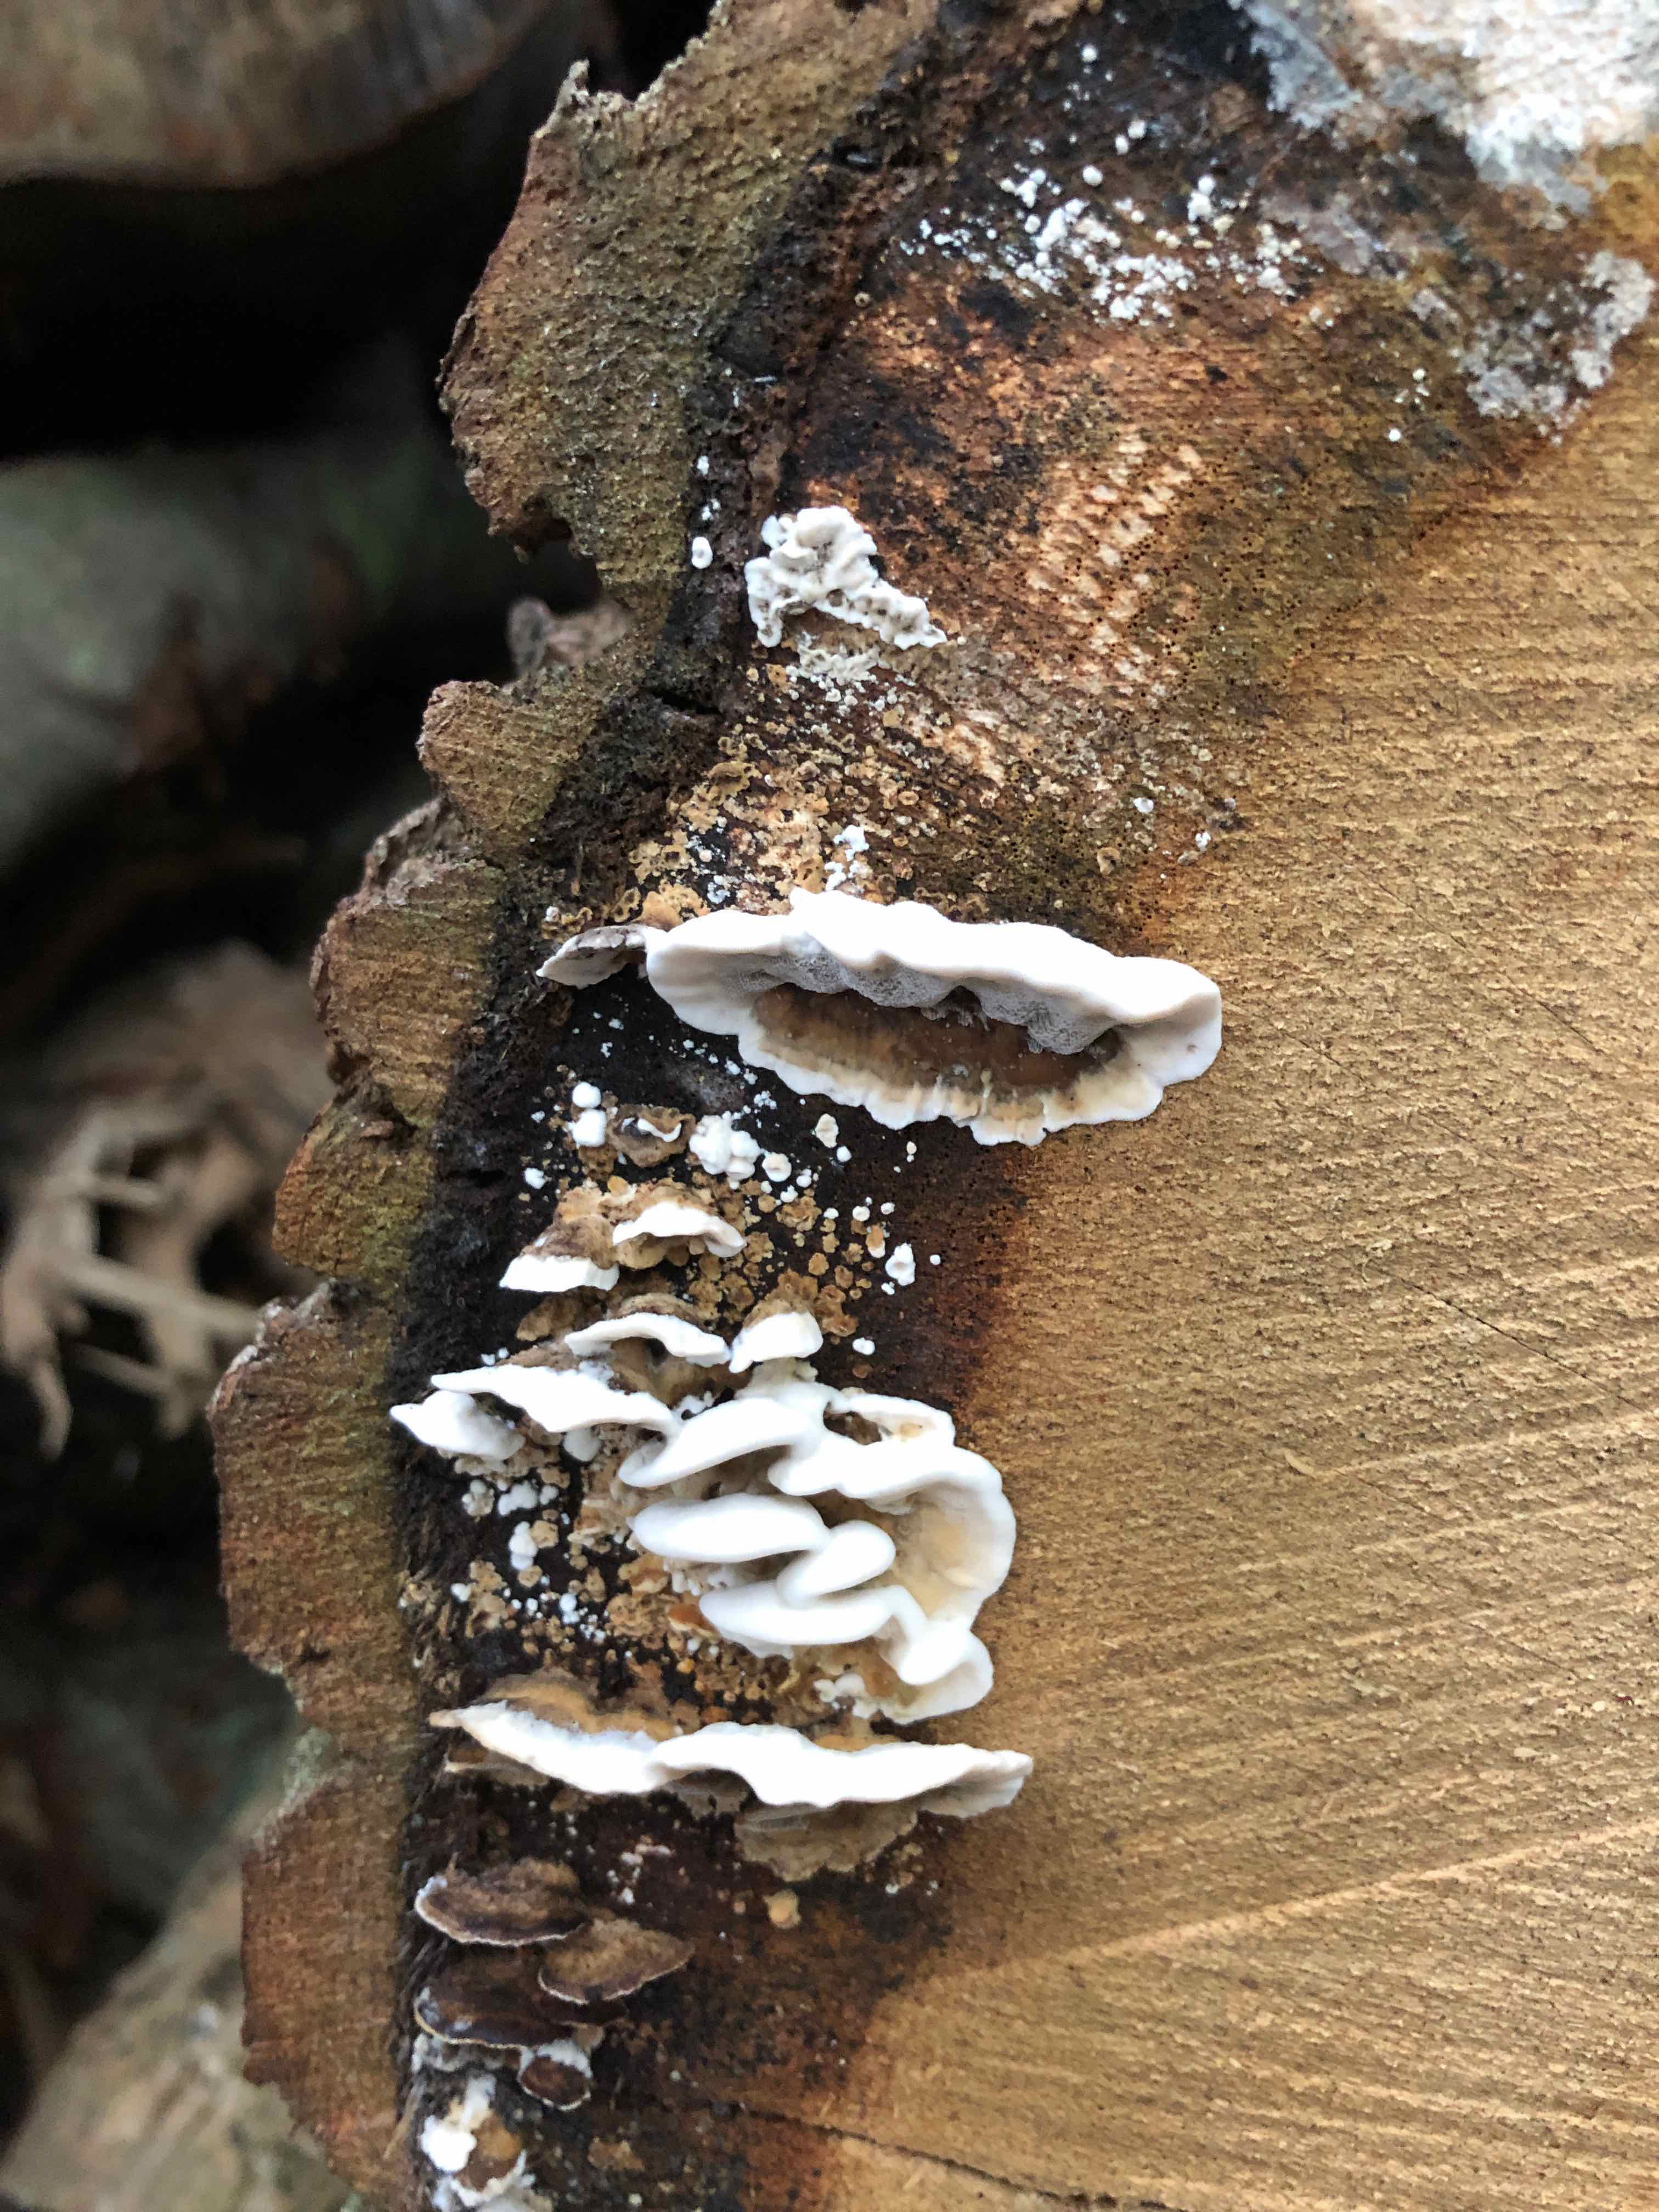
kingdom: Fungi
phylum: Basidiomycota
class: Agaricomycetes
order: Polyporales
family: Phanerochaetaceae
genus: Bjerkandera
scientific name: Bjerkandera adusta
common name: sveden sodporesvamp
